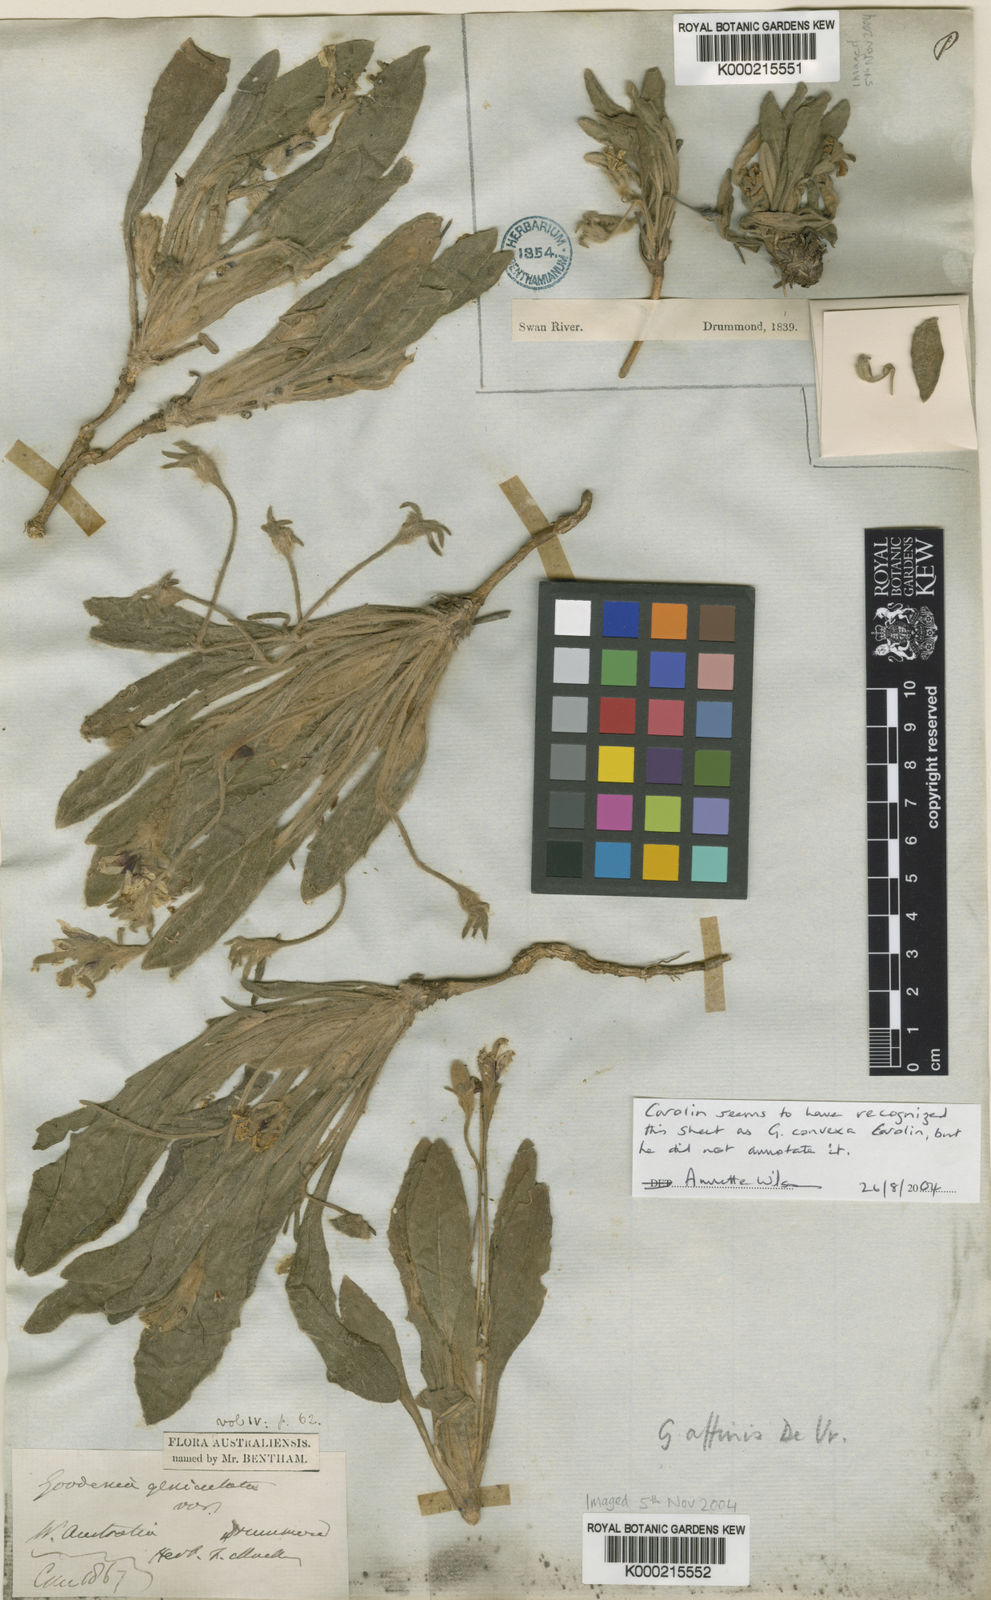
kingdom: Plantae
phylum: Tracheophyta
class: Magnoliopsida
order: Asterales
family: Goodeniaceae
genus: Goodenia
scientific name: Goodenia affinis
